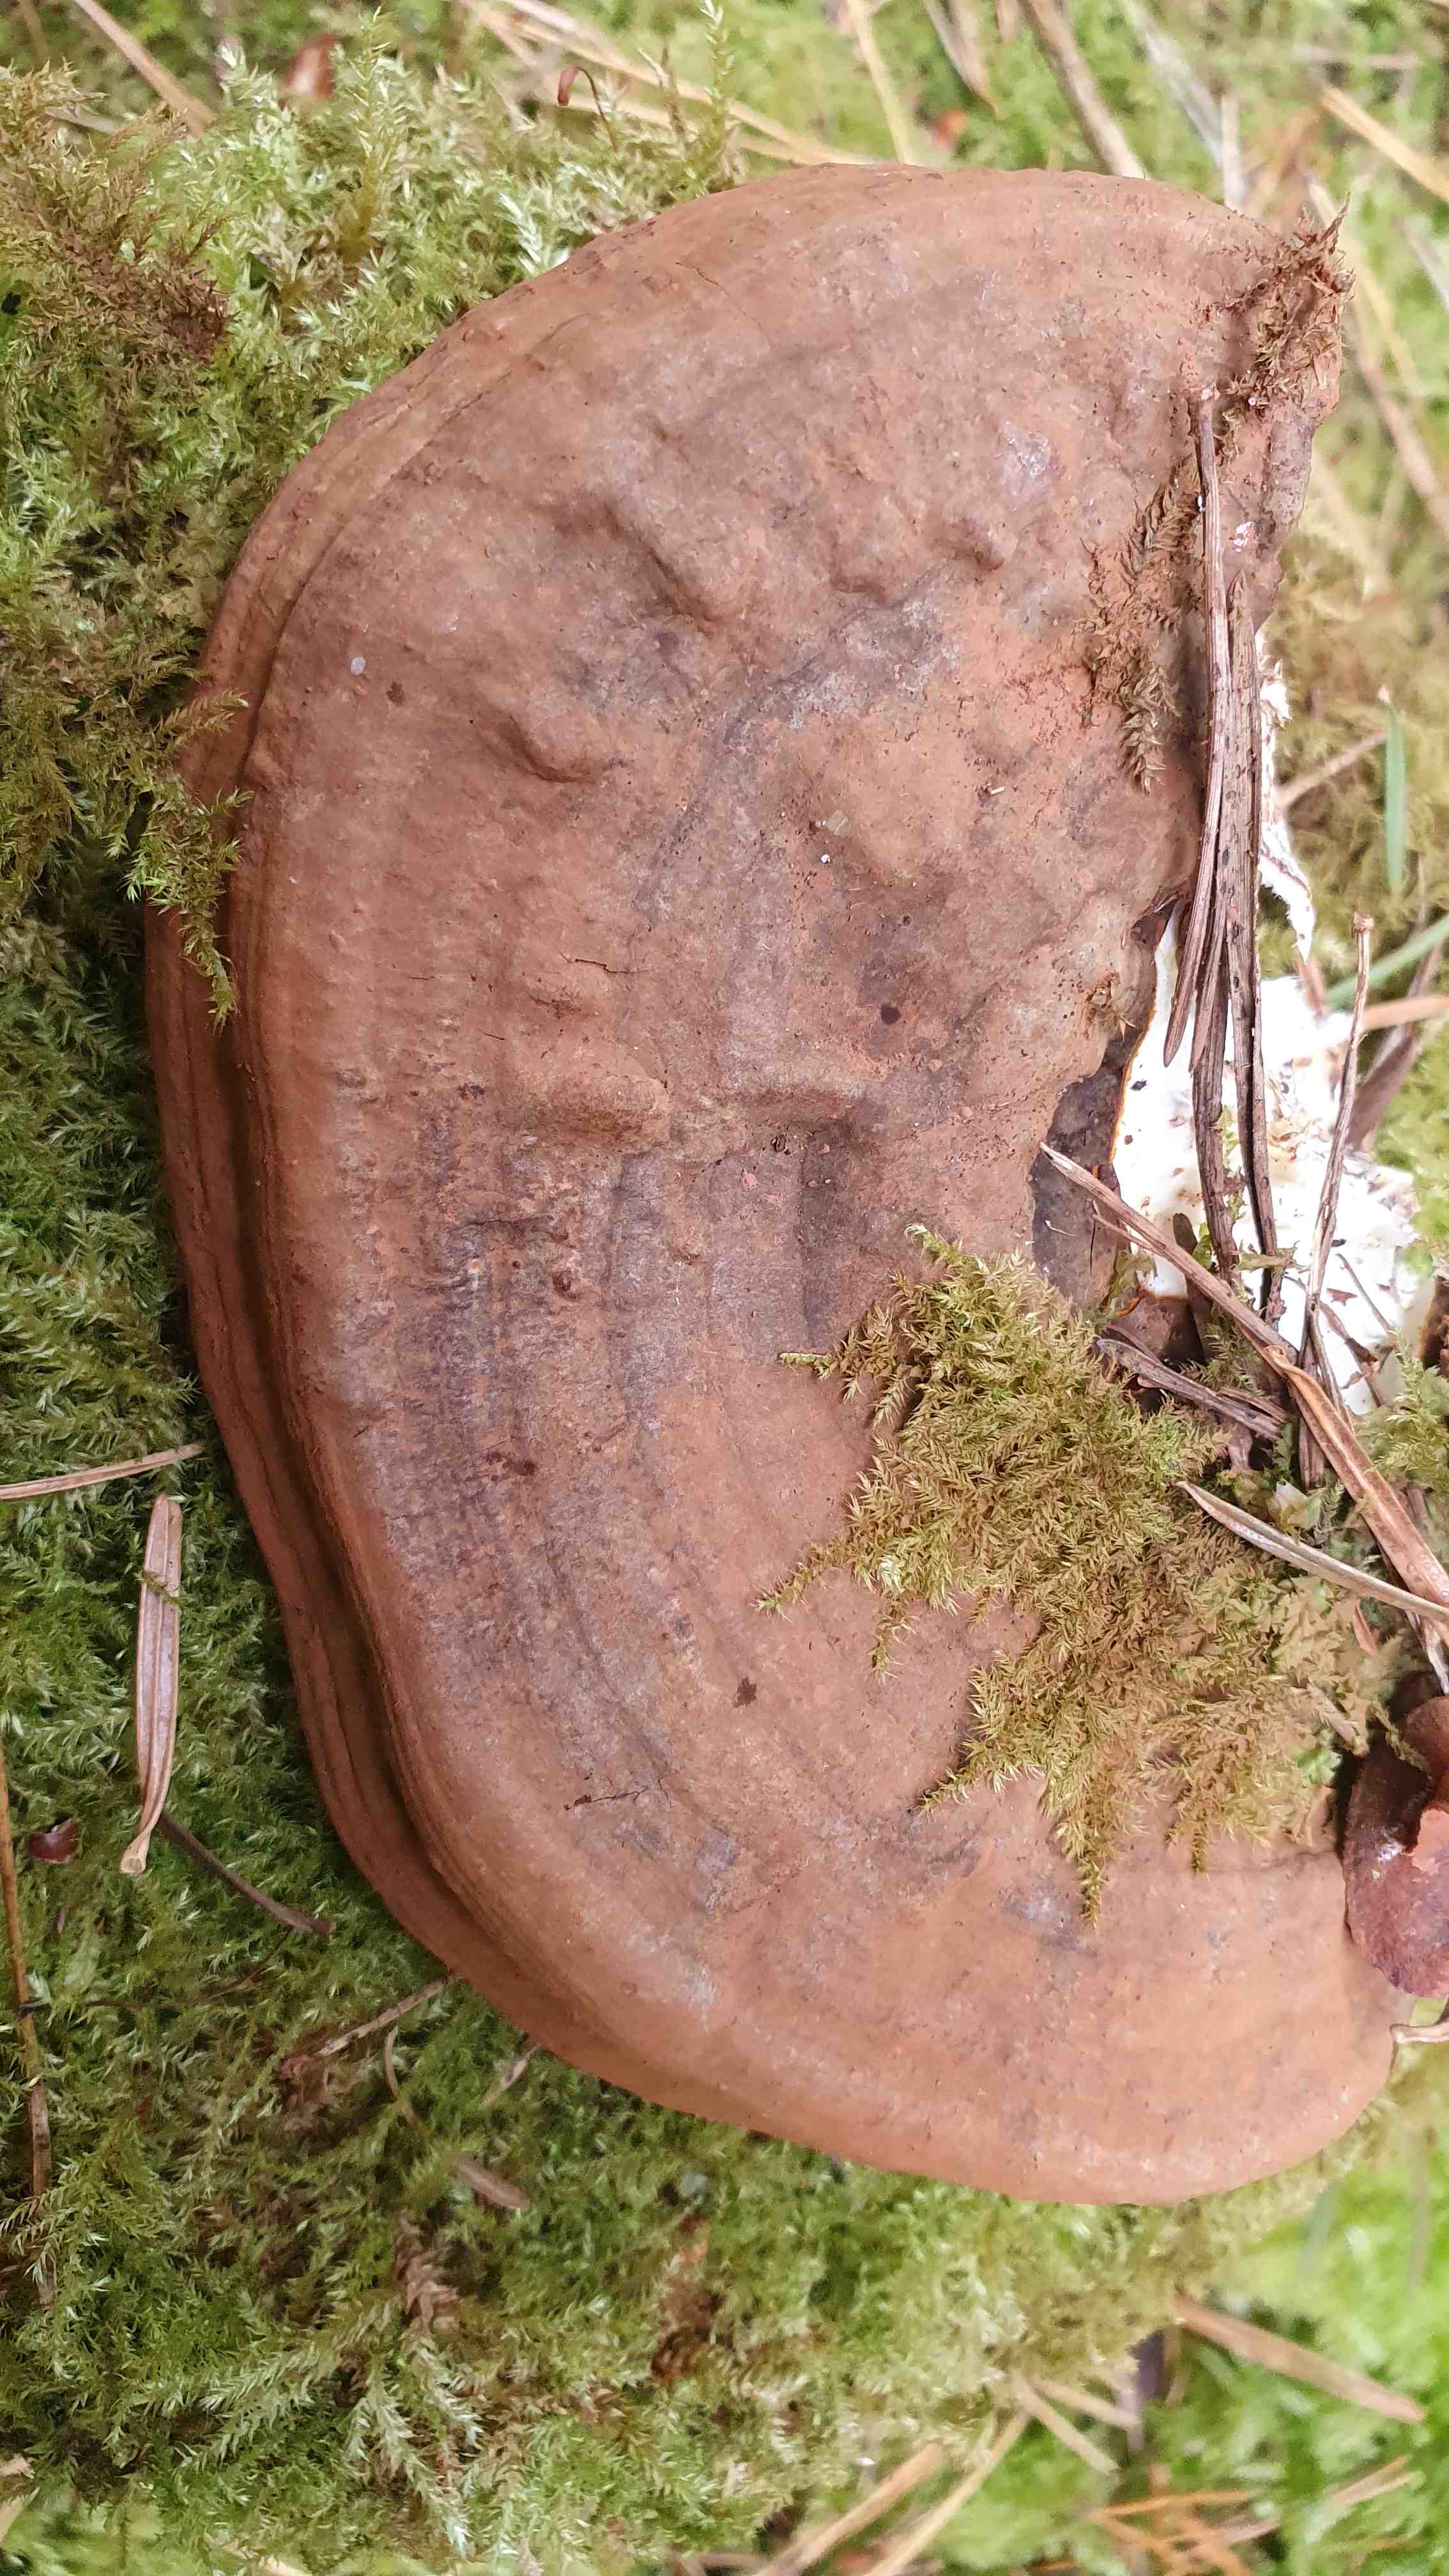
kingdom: Fungi
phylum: Basidiomycota
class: Agaricomycetes
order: Polyporales
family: Polyporaceae
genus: Ganoderma
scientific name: Ganoderma applanatum
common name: flad lakporesvamp
